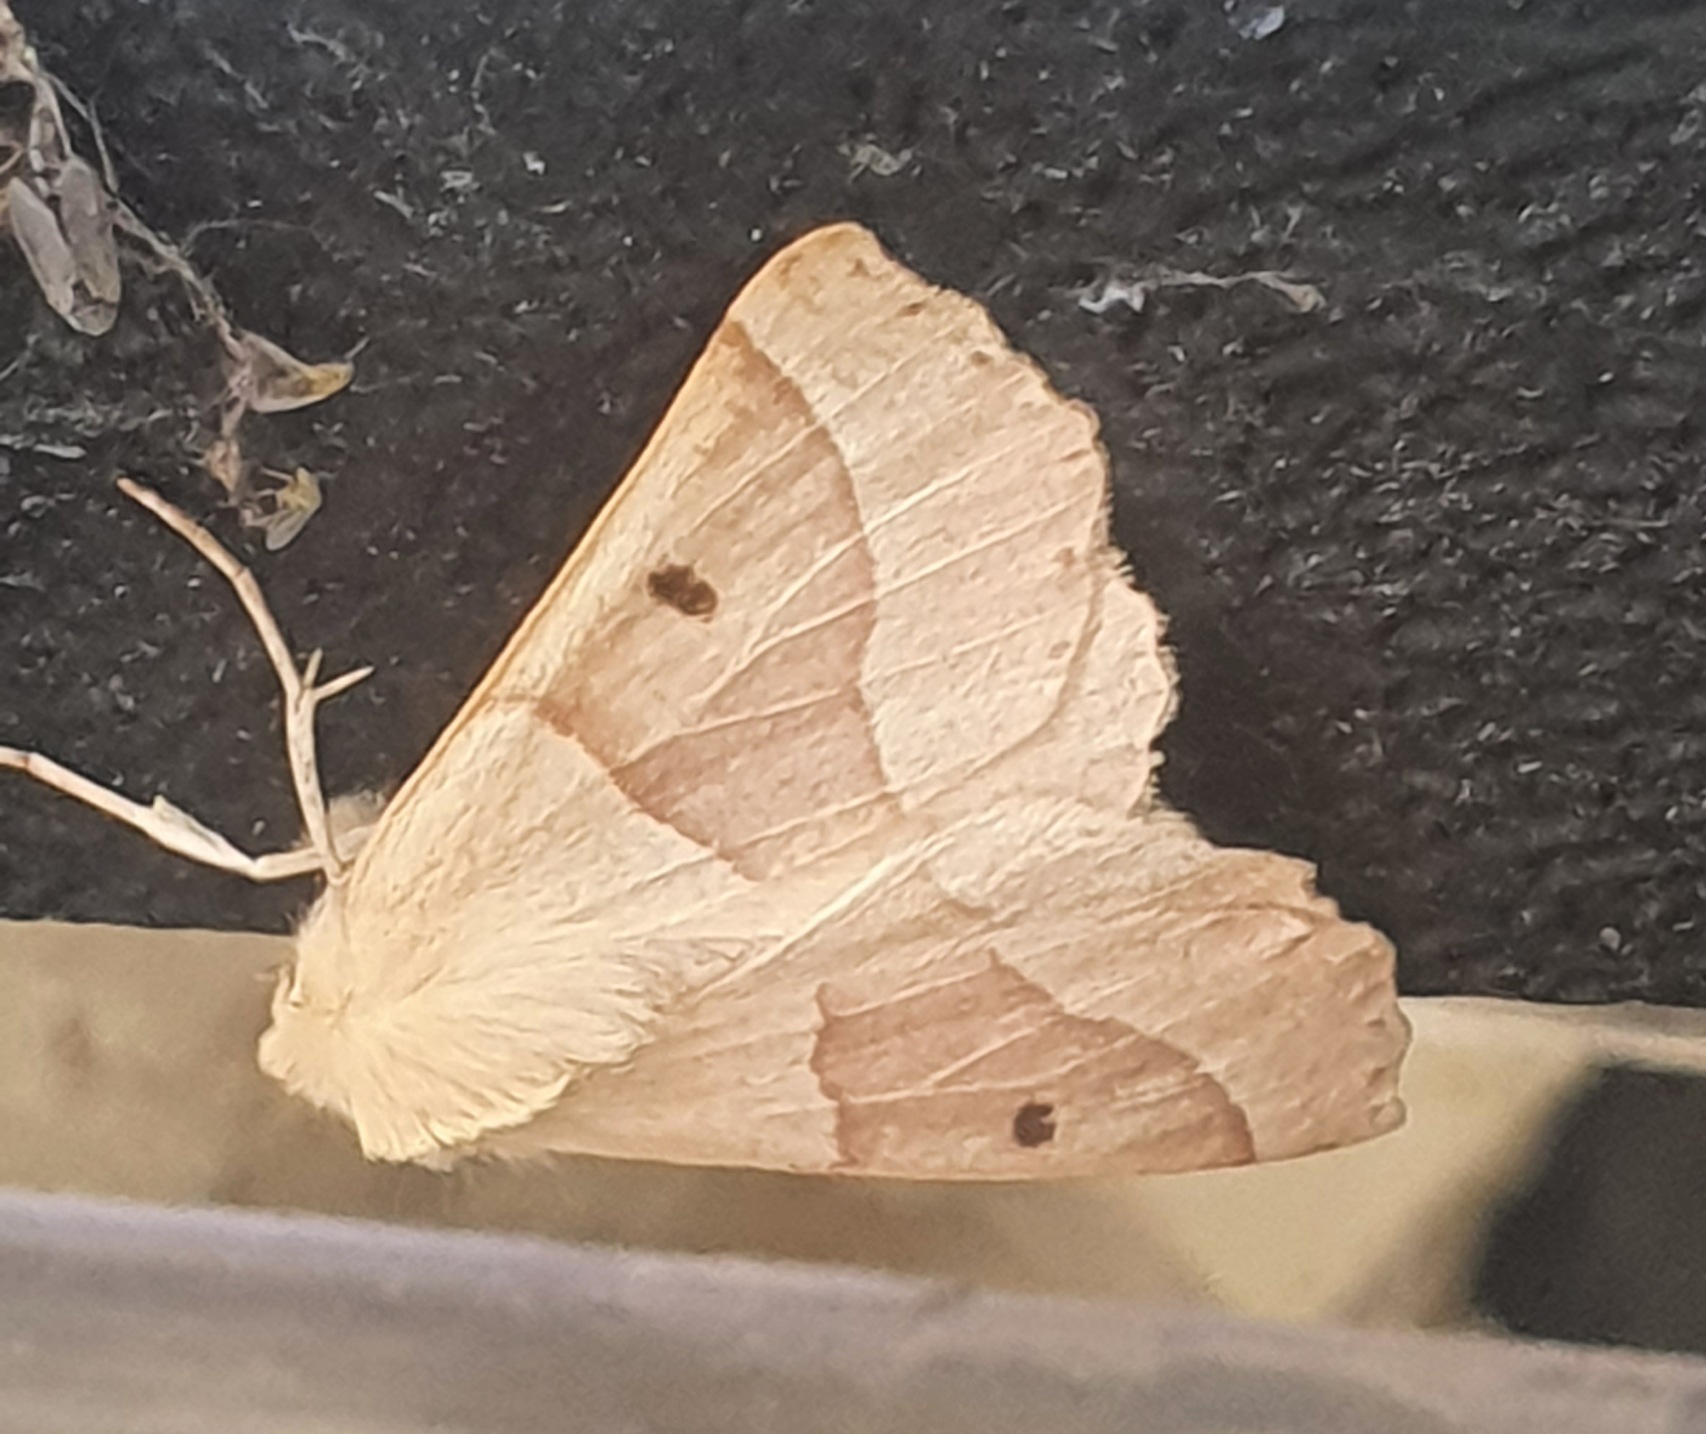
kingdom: Animalia
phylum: Arthropoda
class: Insecta
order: Lepidoptera
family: Geometridae
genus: Crocallis
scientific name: Crocallis elinguaria
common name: Okkergul rovmåler
